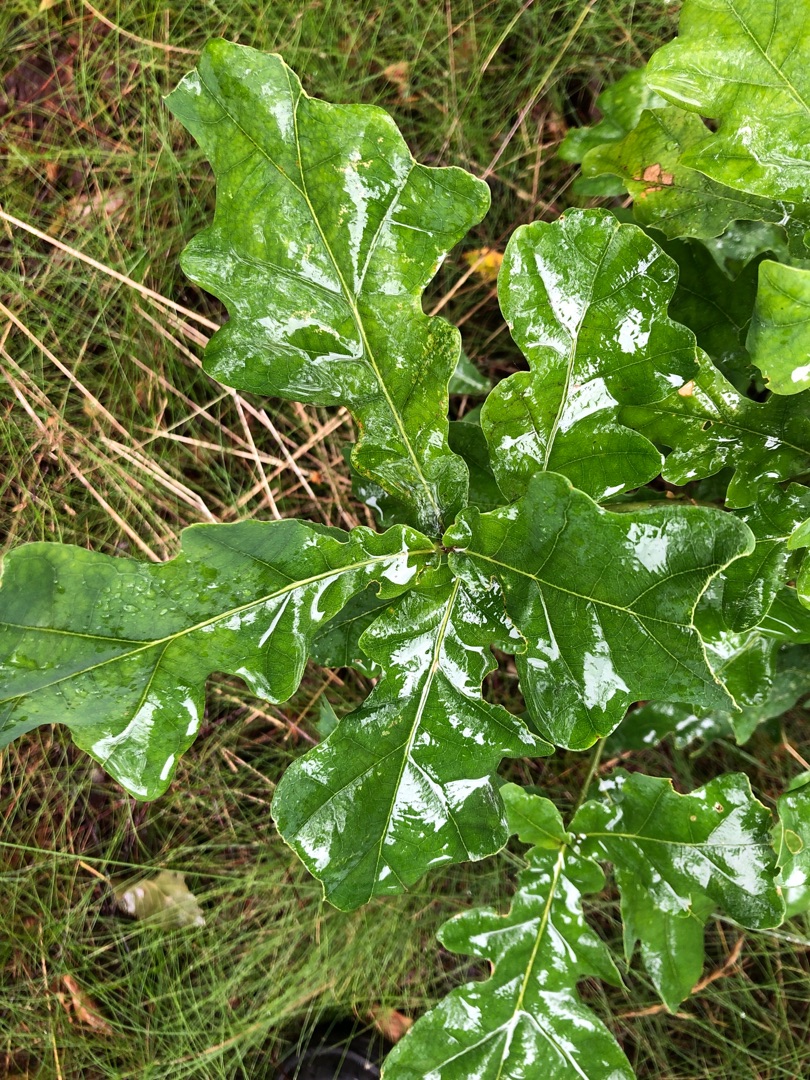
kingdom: Plantae
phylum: Tracheophyta
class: Magnoliopsida
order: Fagales
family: Fagaceae
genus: Quercus
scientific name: Quercus robur
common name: Stilk-eg/almindelig eg
